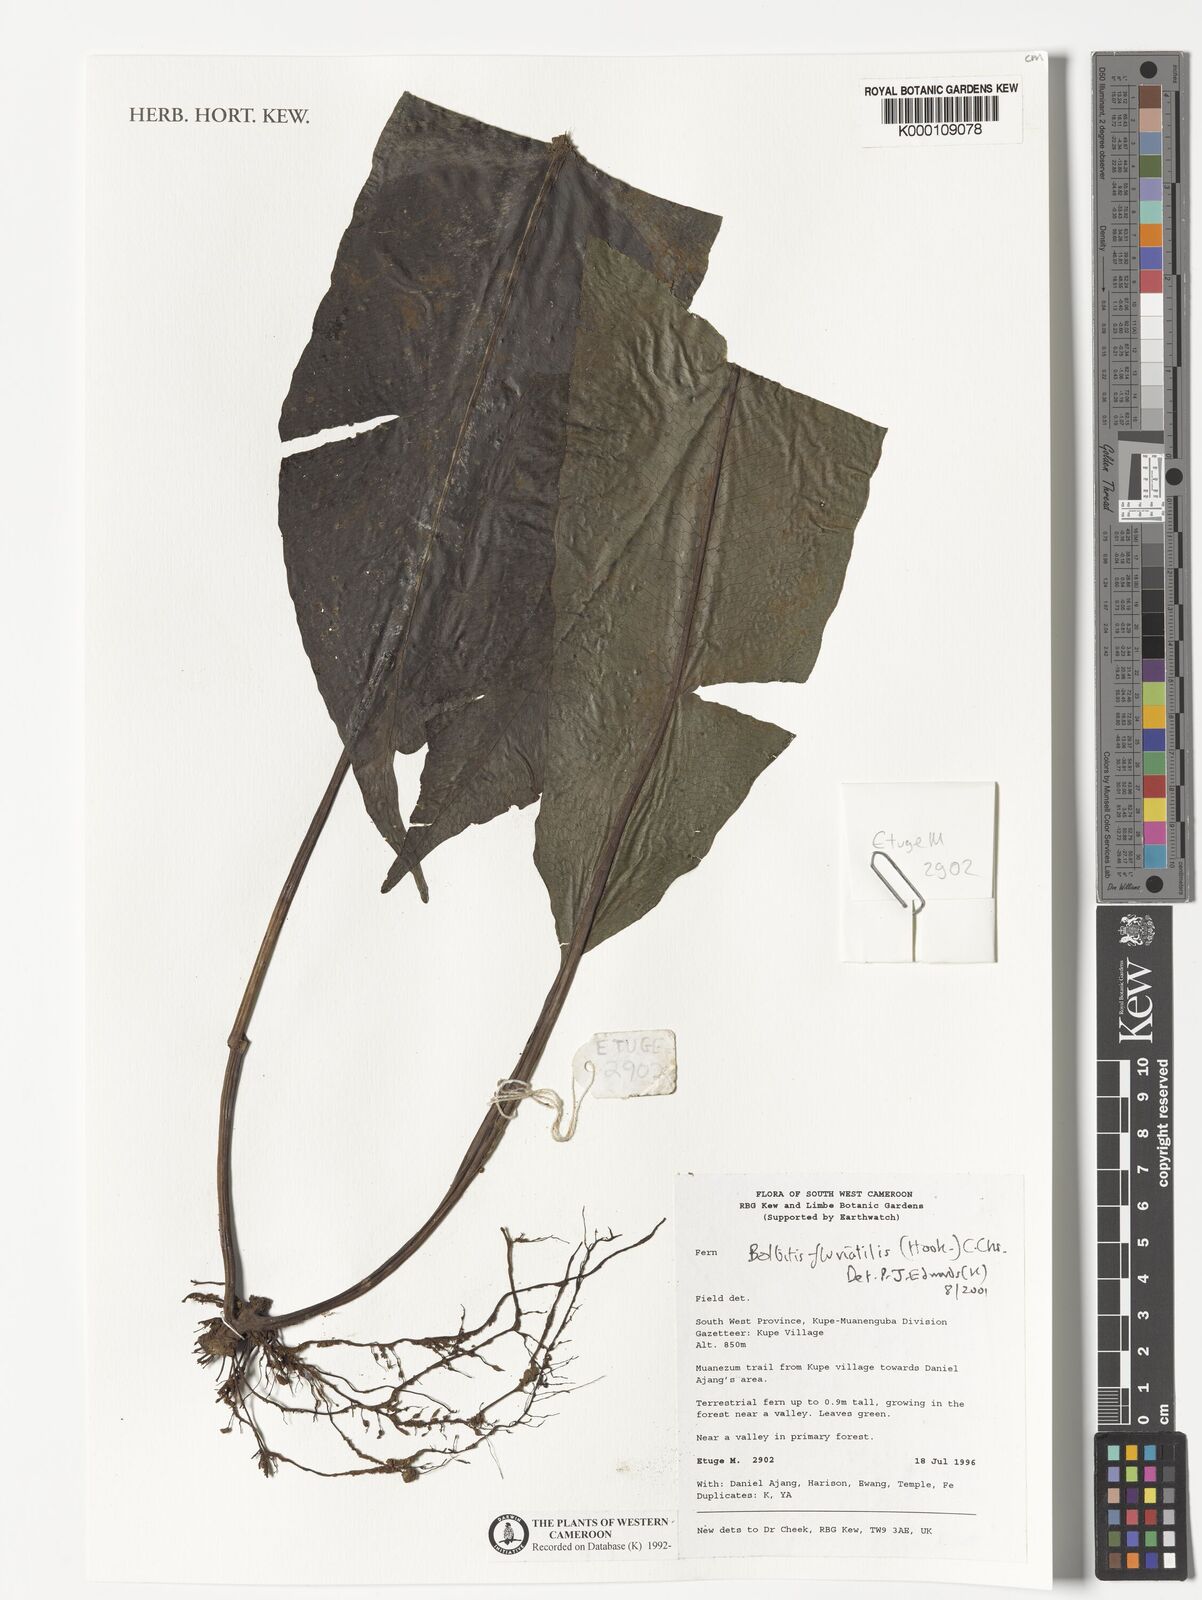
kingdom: Plantae
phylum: Tracheophyta
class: Polypodiopsida
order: Polypodiales
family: Dryopteridaceae
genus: Bolbitis
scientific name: Bolbitis fluviatilis
